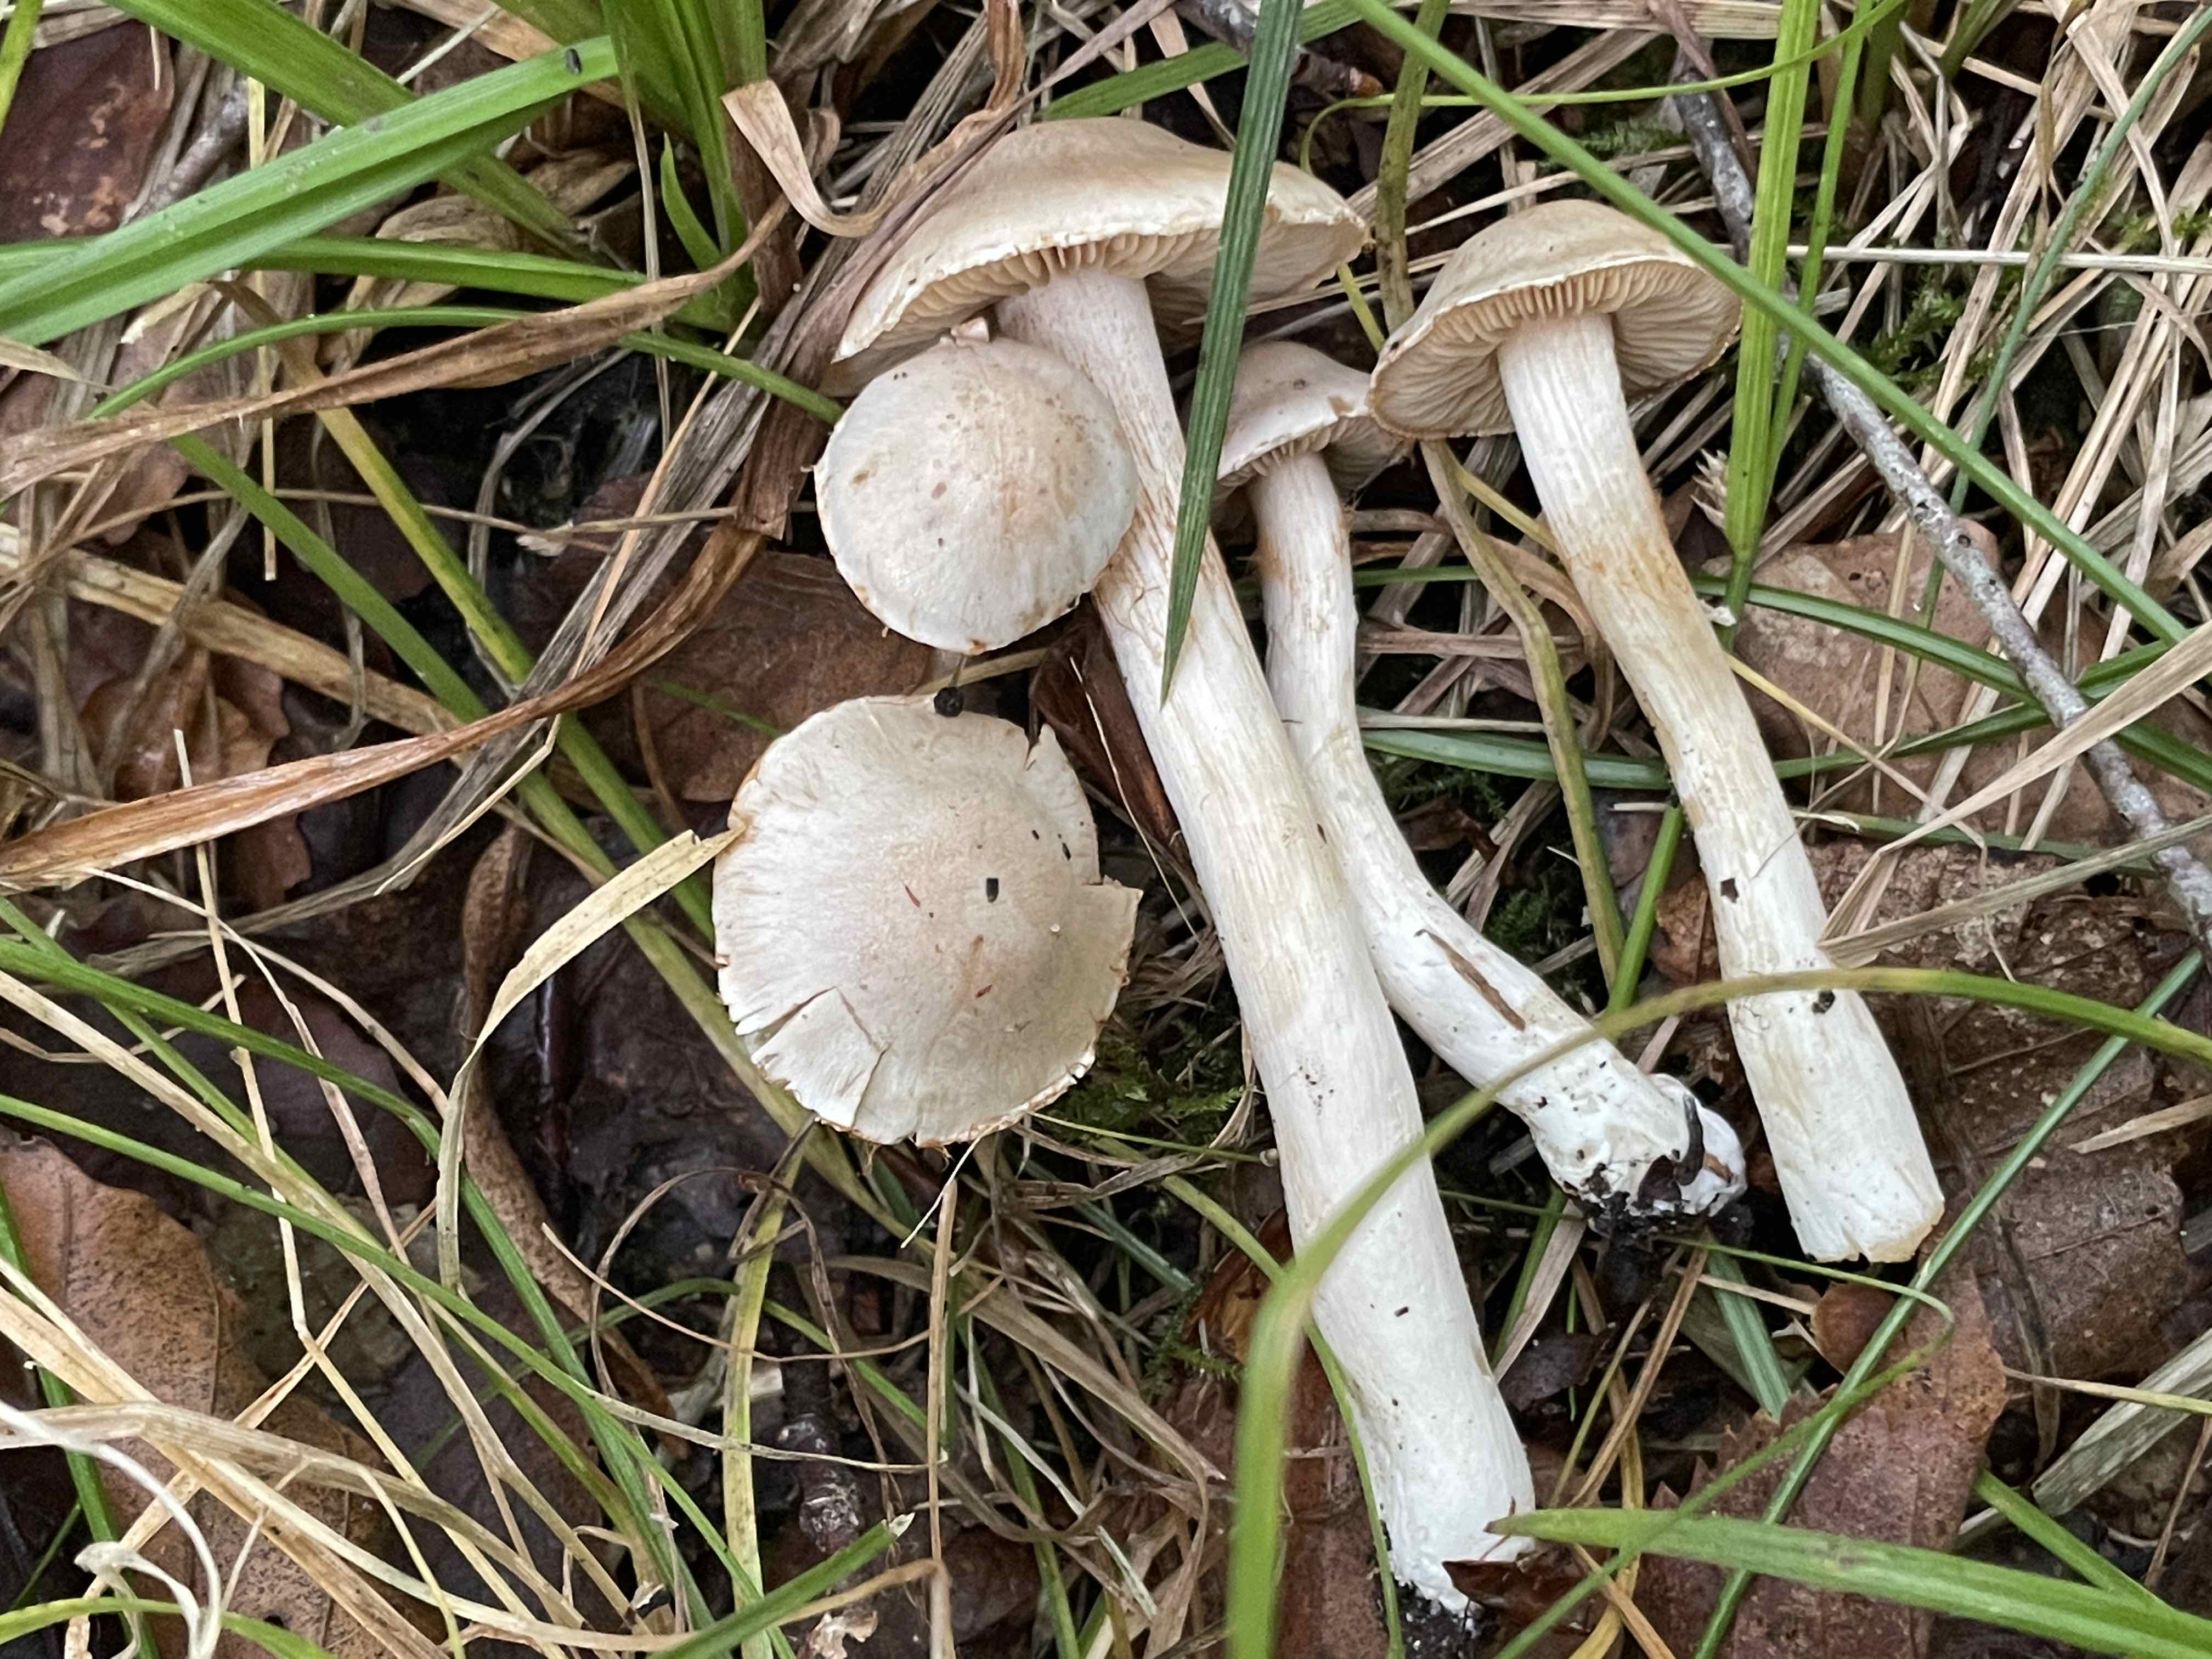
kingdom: Fungi
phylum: Basidiomycota
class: Agaricomycetes
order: Agaricales
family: Cortinariaceae
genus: Cortinarius
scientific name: Cortinarius
